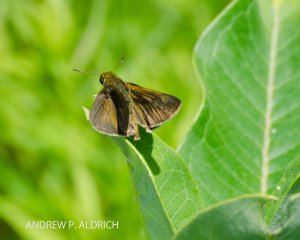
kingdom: Animalia
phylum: Arthropoda
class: Insecta
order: Lepidoptera
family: Hesperiidae
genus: Euphyes
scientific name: Euphyes vestris
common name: Dun Skipper
